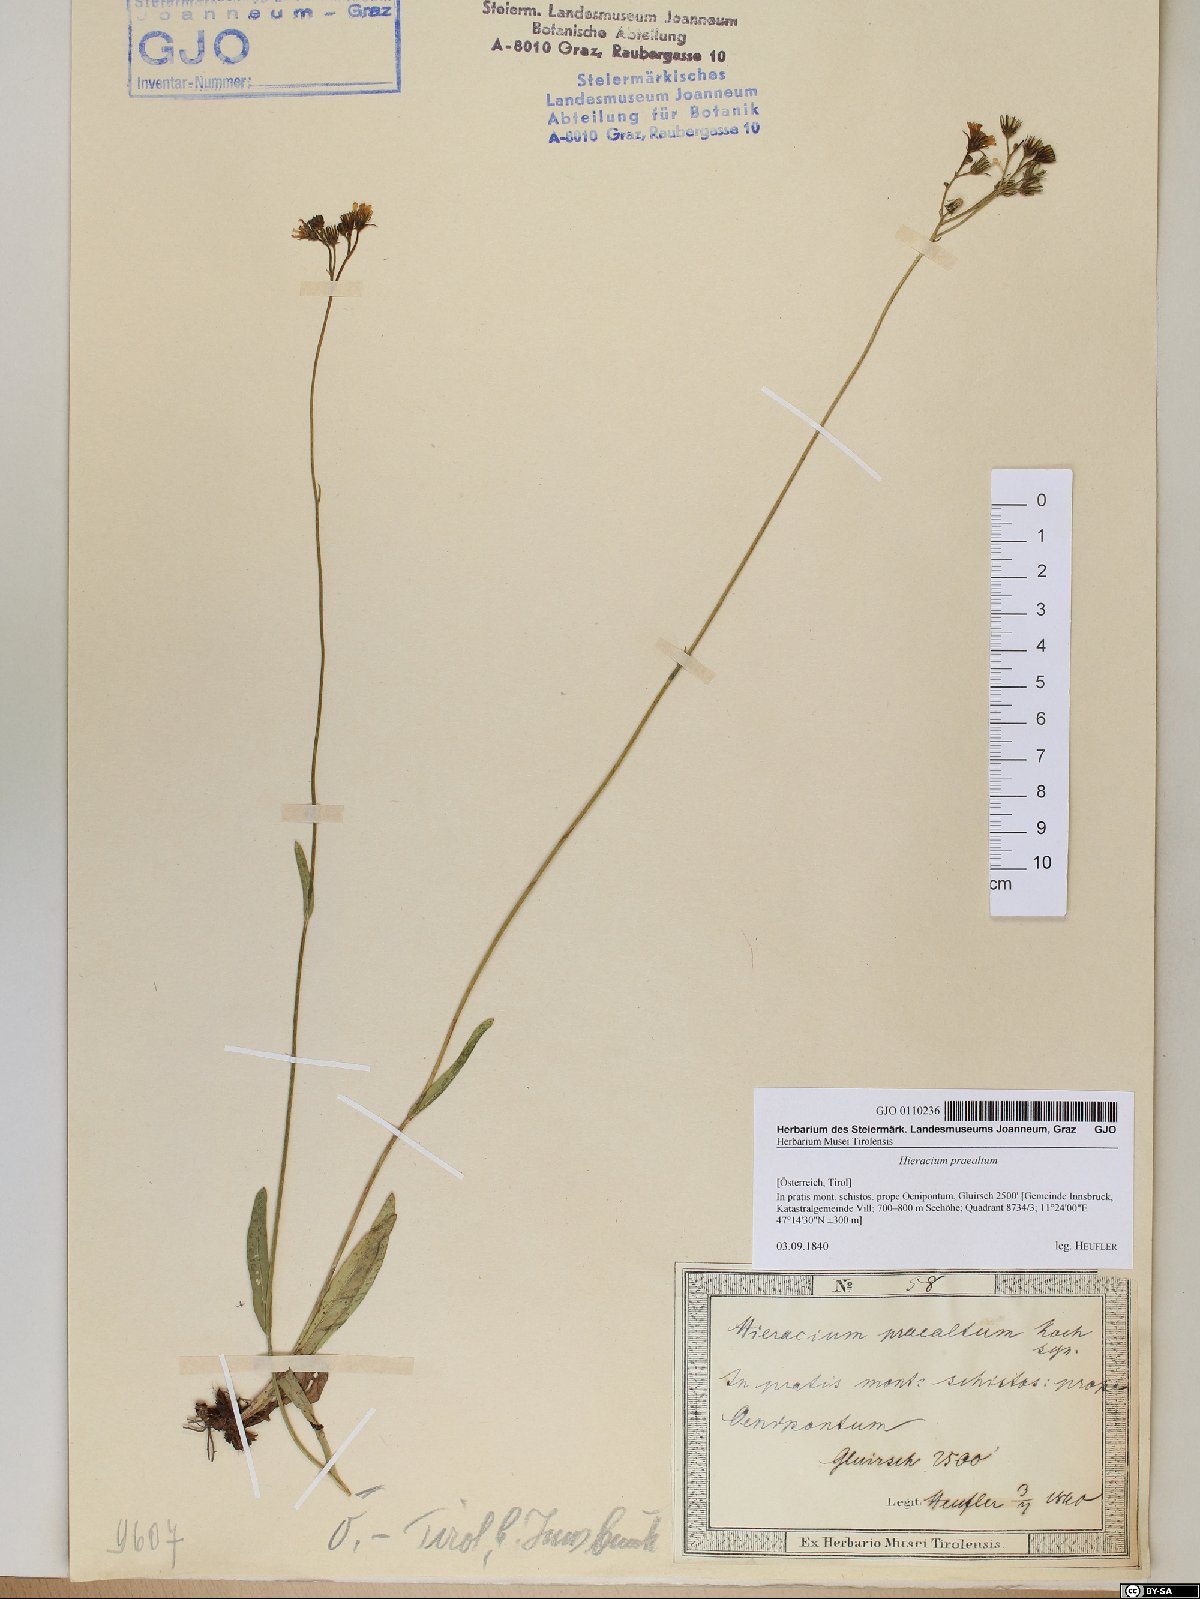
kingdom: Plantae
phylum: Tracheophyta
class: Magnoliopsida
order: Asterales
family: Asteraceae
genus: Pilosella
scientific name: Pilosella piloselloides
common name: Glaucous king-devil
